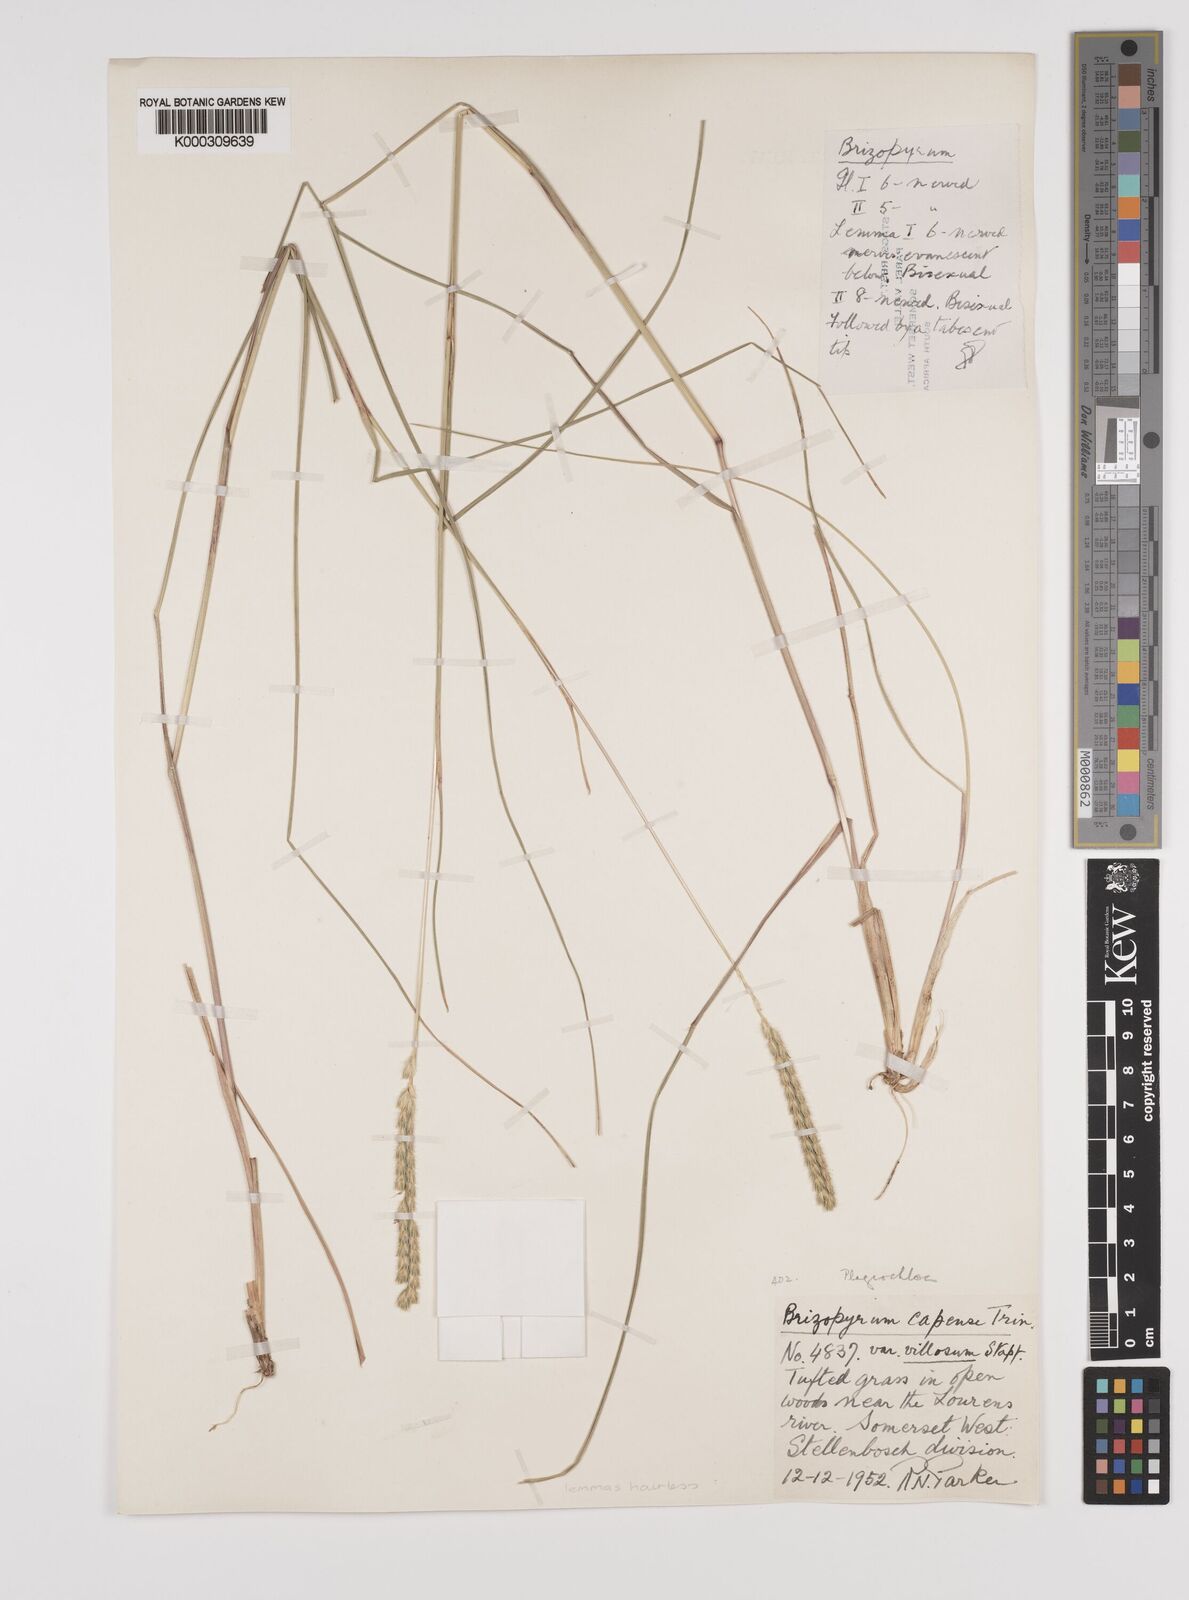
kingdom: Plantae
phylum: Tracheophyta
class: Liliopsida
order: Poales
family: Poaceae
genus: Tribolium
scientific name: Tribolium uniolae
